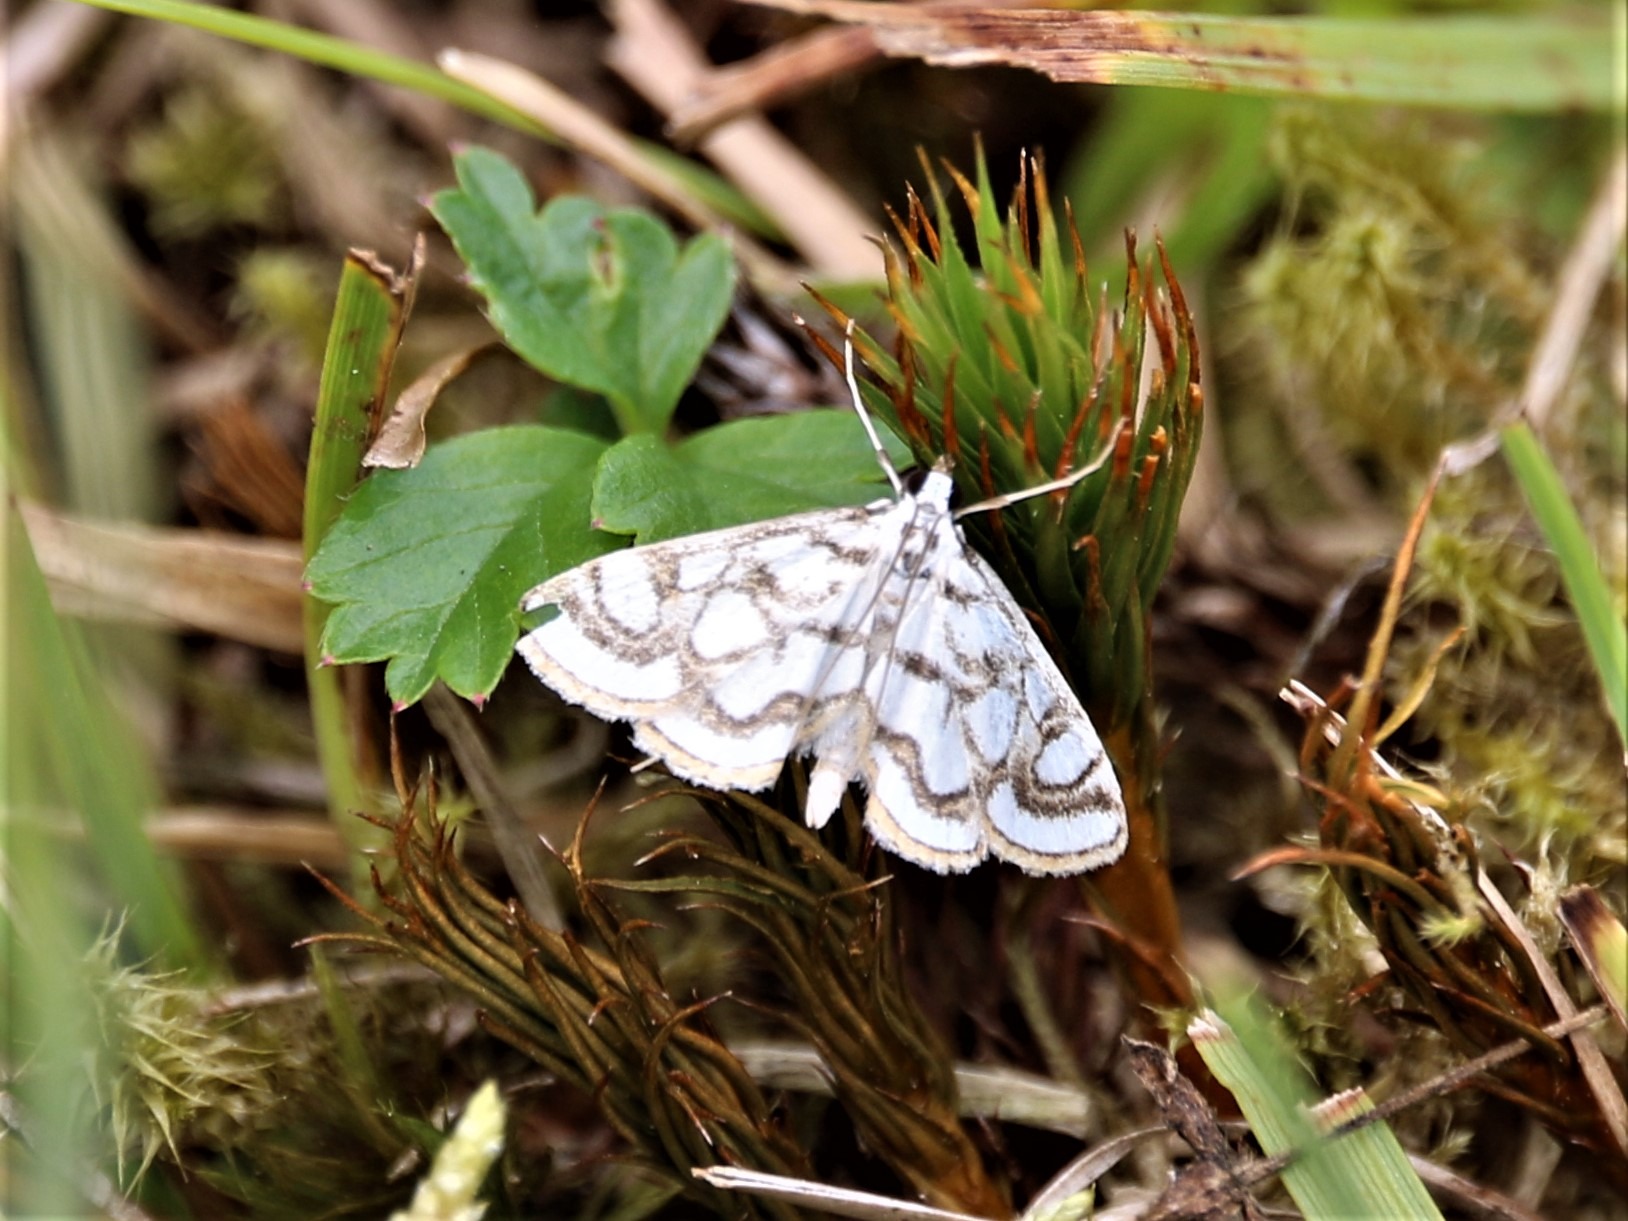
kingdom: Animalia
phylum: Arthropoda
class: Insecta
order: Lepidoptera
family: Crambidae
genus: Nymphula
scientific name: Nymphula nitidulata
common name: Lille porcelænsmøl
